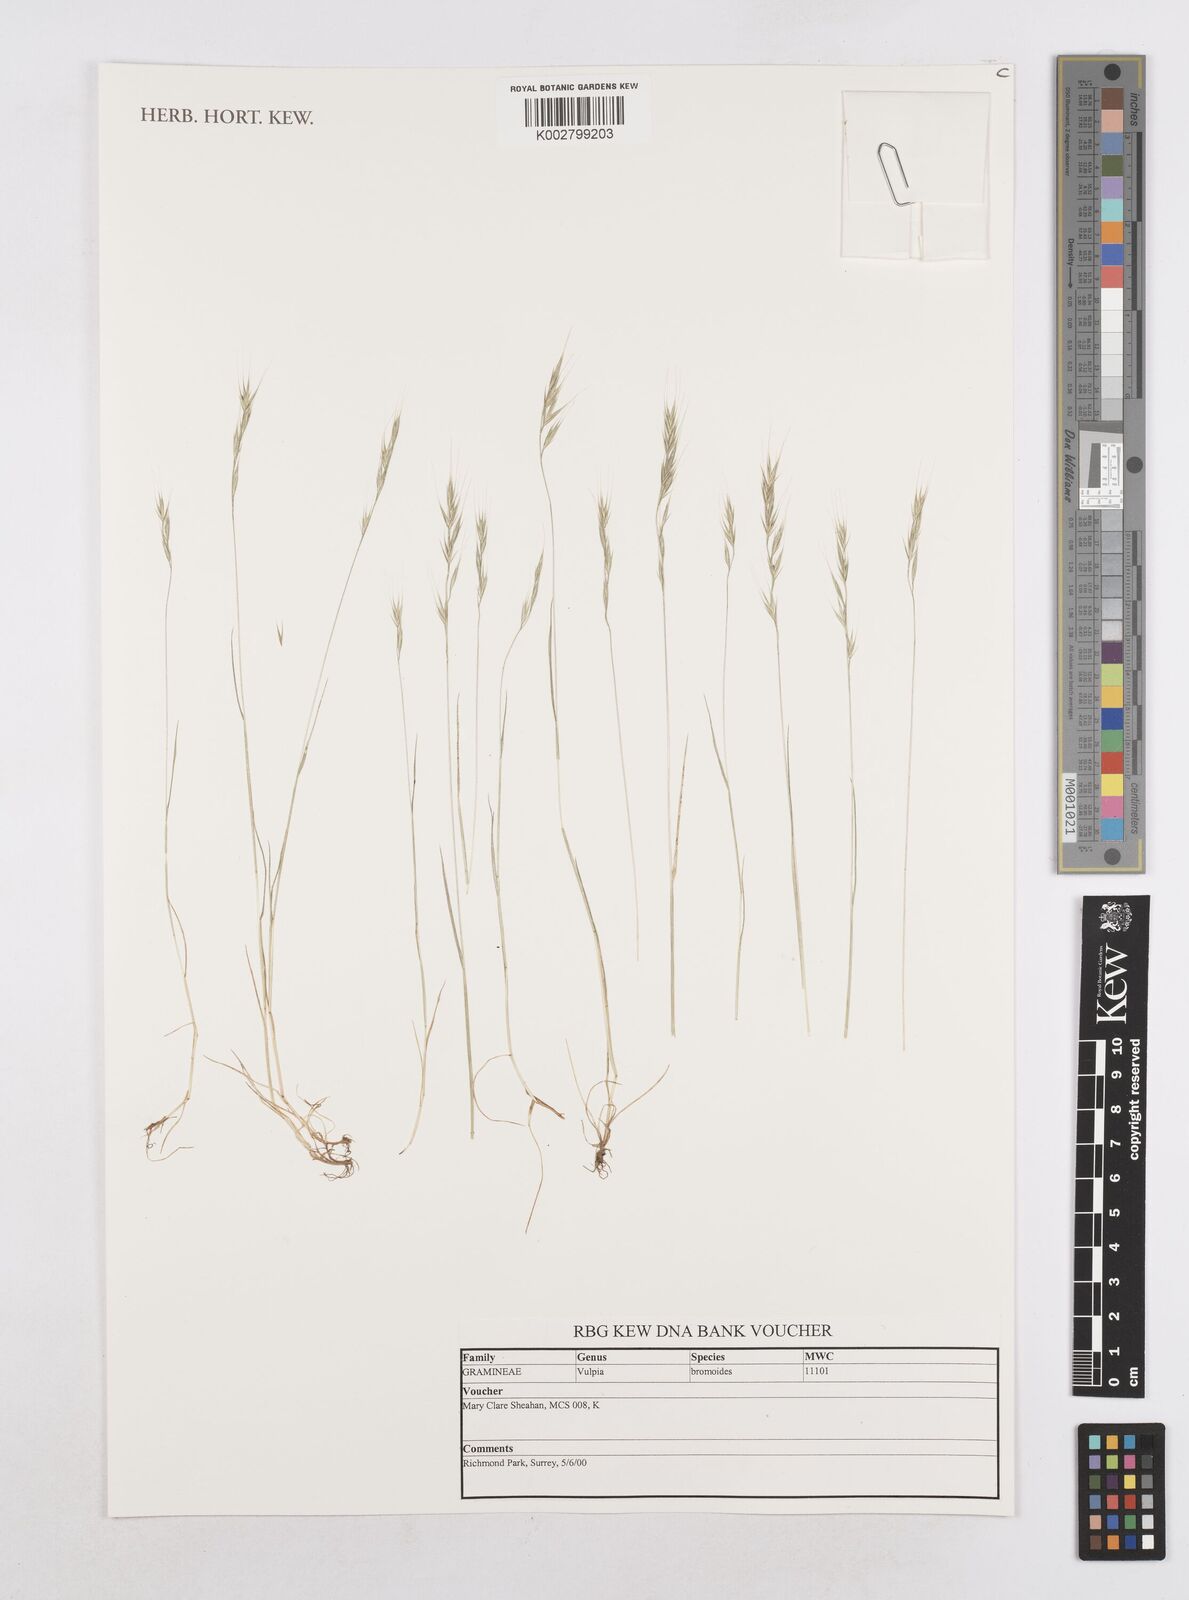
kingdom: Plantae
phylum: Tracheophyta
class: Liliopsida
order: Poales
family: Poaceae
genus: Festuca
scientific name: Festuca bromoides
